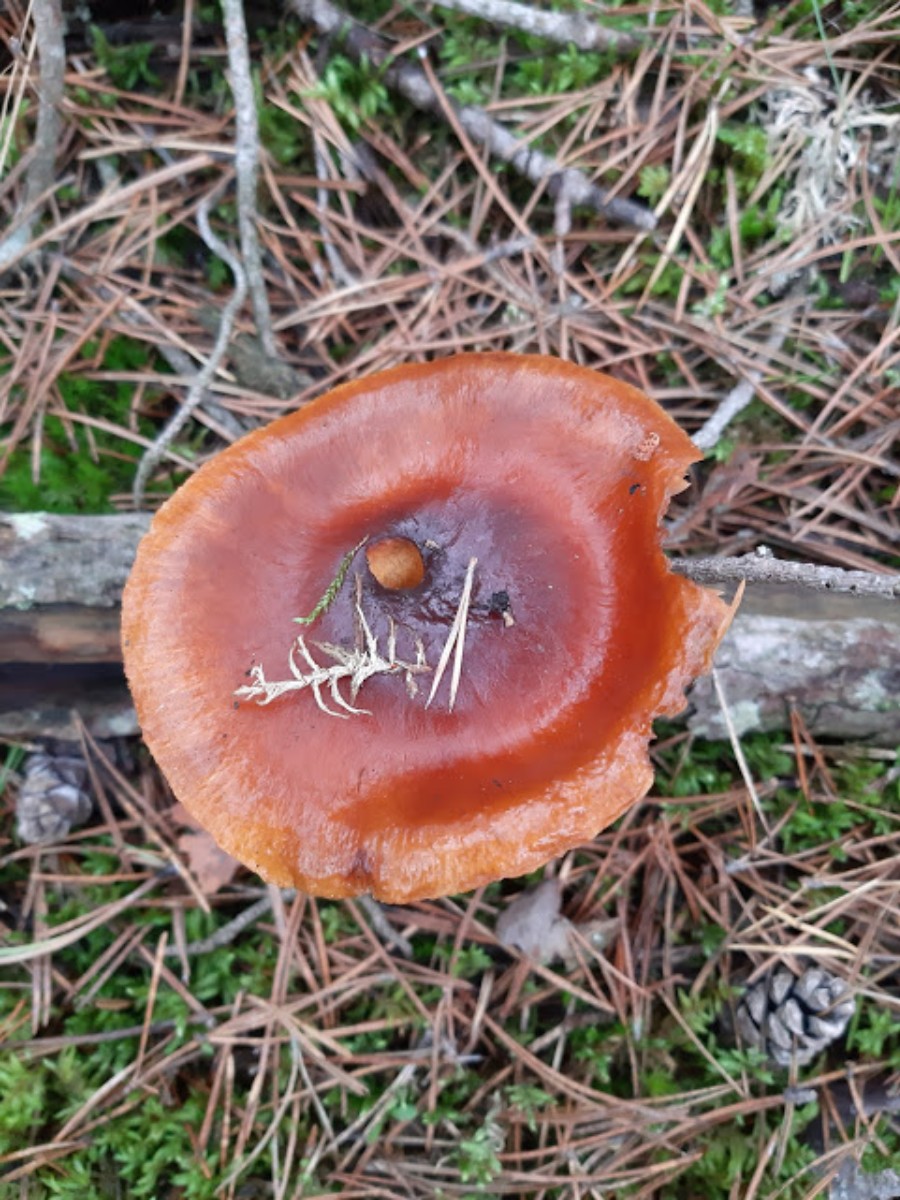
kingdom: Fungi
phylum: Basidiomycota
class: Agaricomycetes
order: Agaricales
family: Cortinariaceae
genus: Cortinarius
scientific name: Cortinarius mucosus
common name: kastaniebrun slørhat
